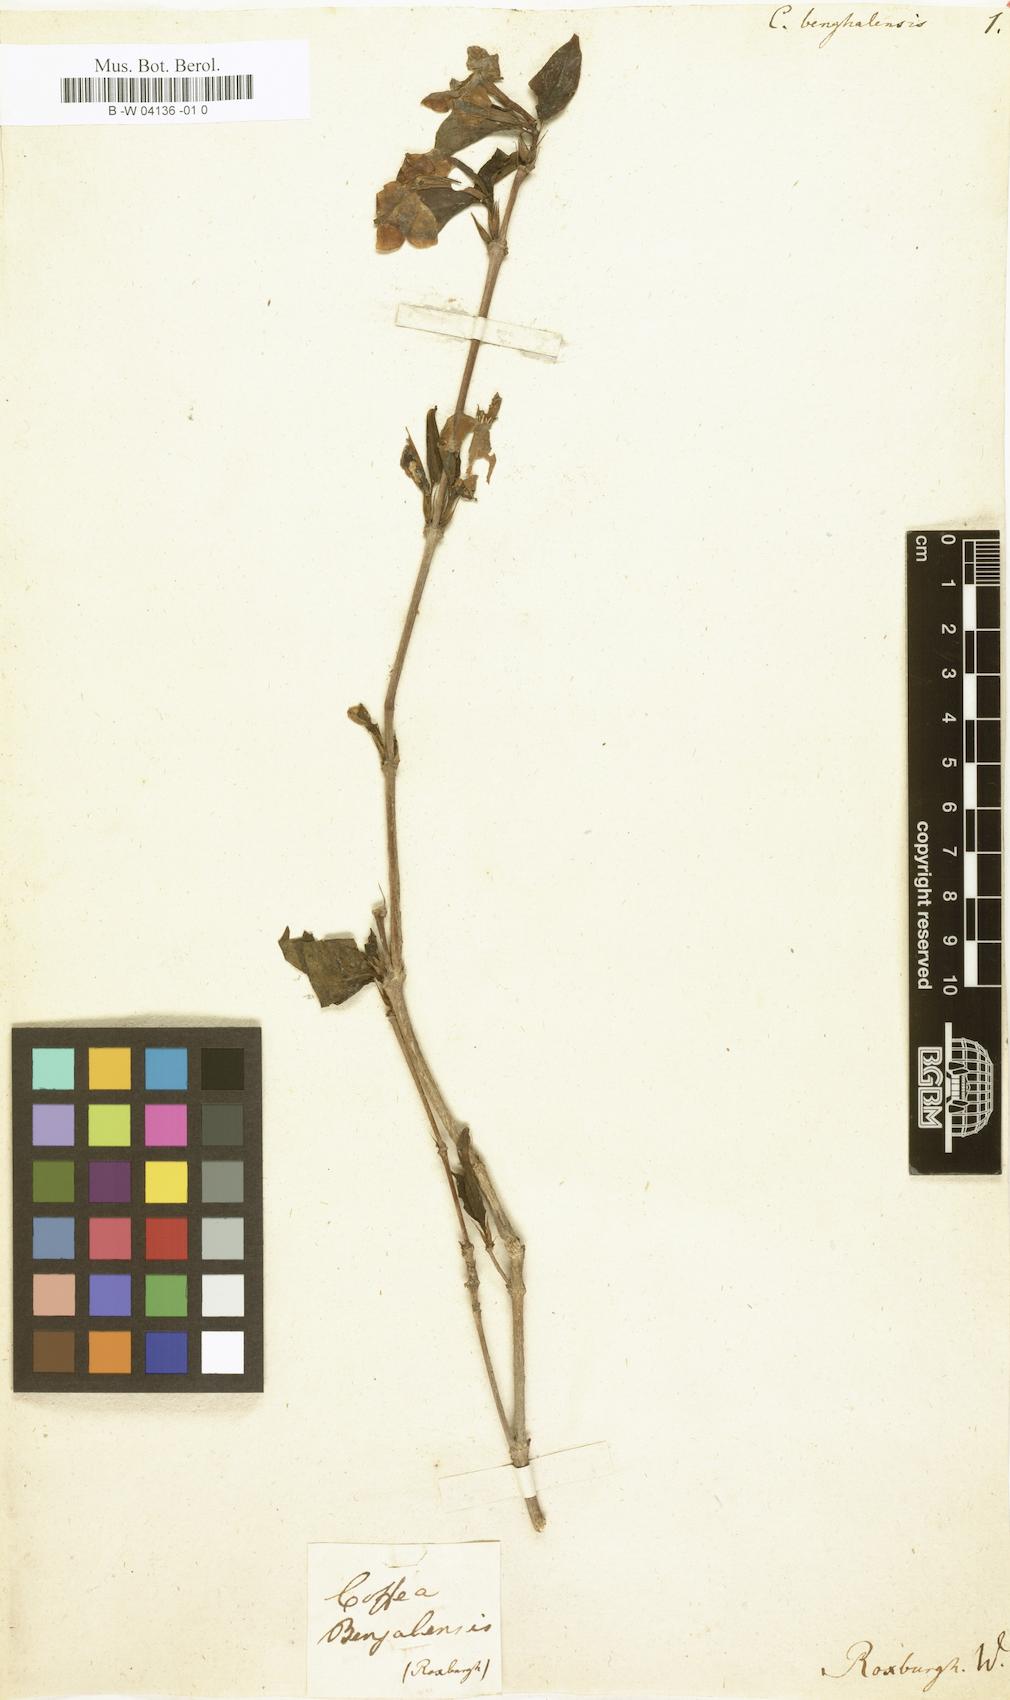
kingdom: Plantae
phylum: Tracheophyta
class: Magnoliopsida
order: Gentianales
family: Rubiaceae
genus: Coffea
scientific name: Coffea benghalensis
